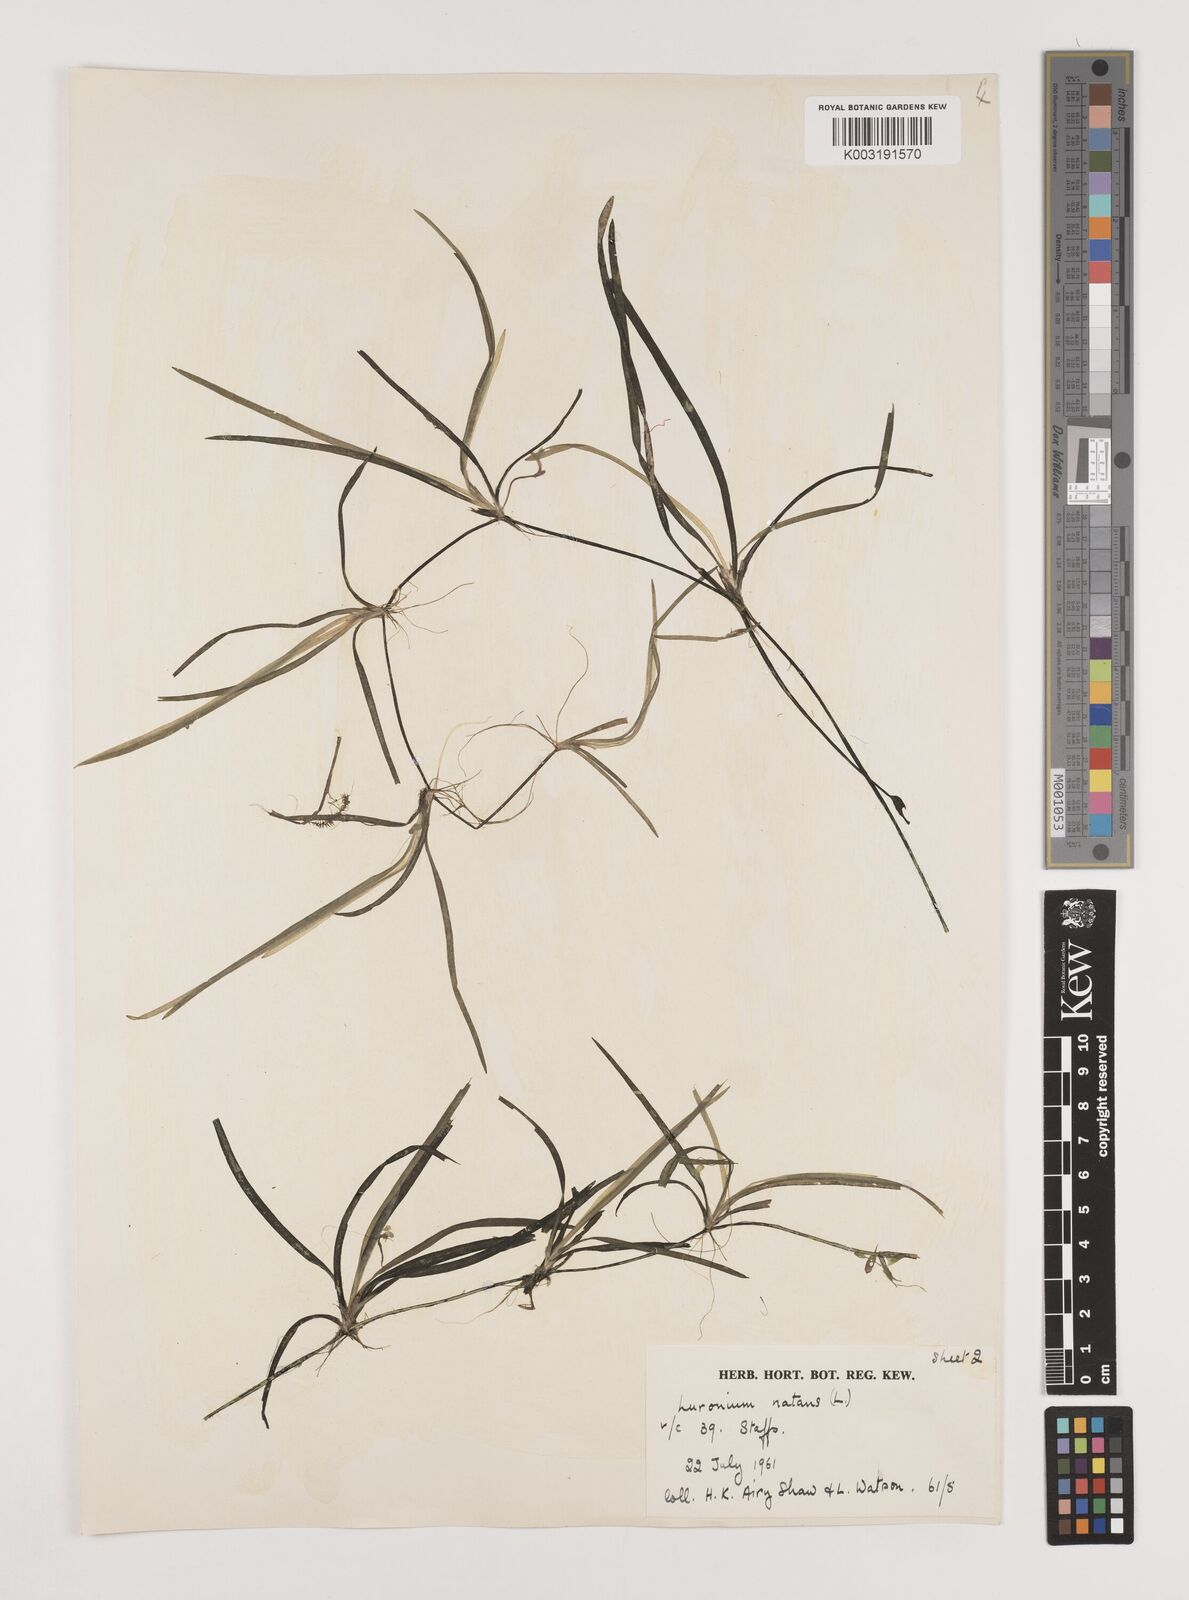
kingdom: Plantae
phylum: Tracheophyta
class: Liliopsida
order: Alismatales
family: Alismataceae
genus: Luronium
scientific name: Luronium natans
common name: Floating water-plantain
